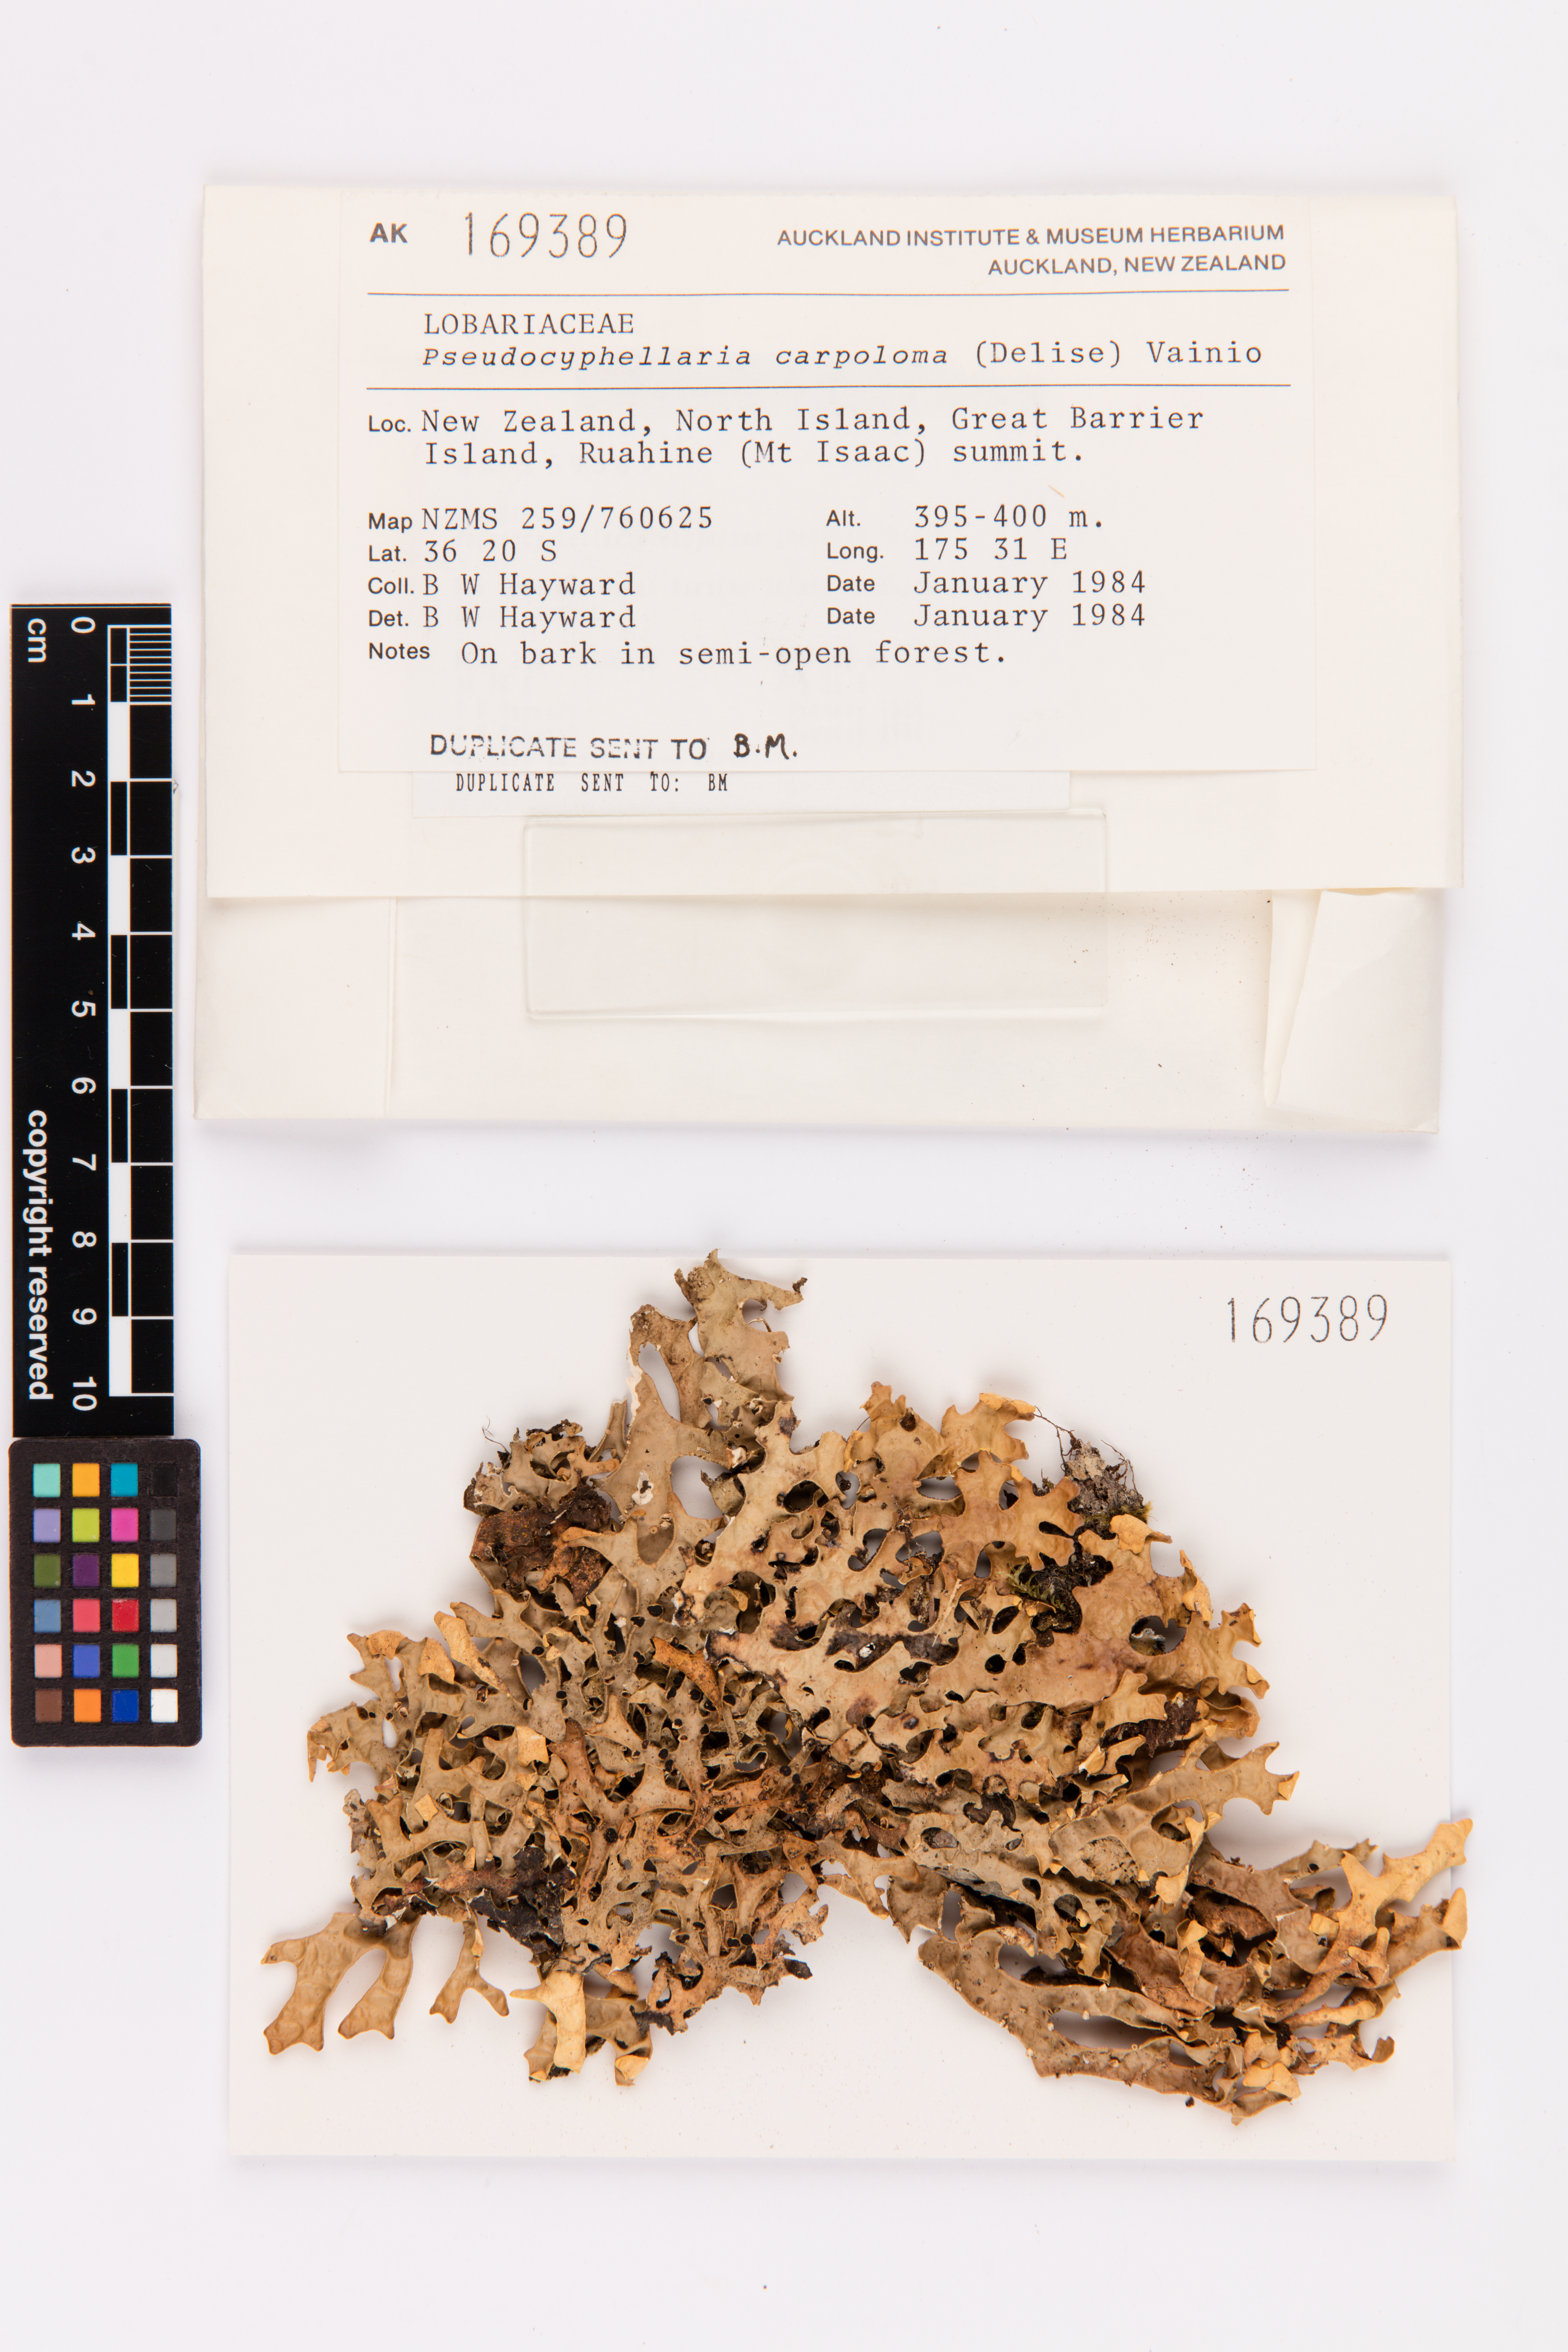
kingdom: Fungi
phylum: Ascomycota
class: Lecanoromycetes
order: Peltigerales
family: Lobariaceae
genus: Pseudocyphellaria
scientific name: Pseudocyphellaria carpoloma
